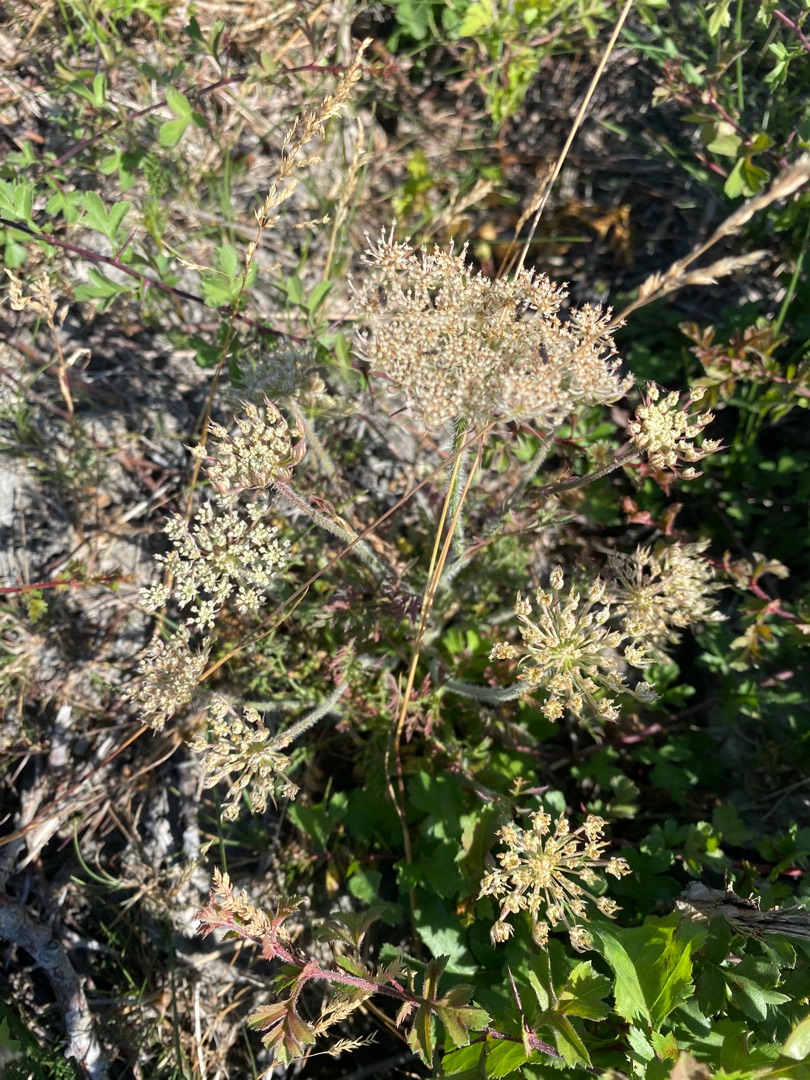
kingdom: Plantae
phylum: Tracheophyta
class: Magnoliopsida
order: Apiales
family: Apiaceae
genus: Daucus
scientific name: Daucus carota
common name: Gulerod
